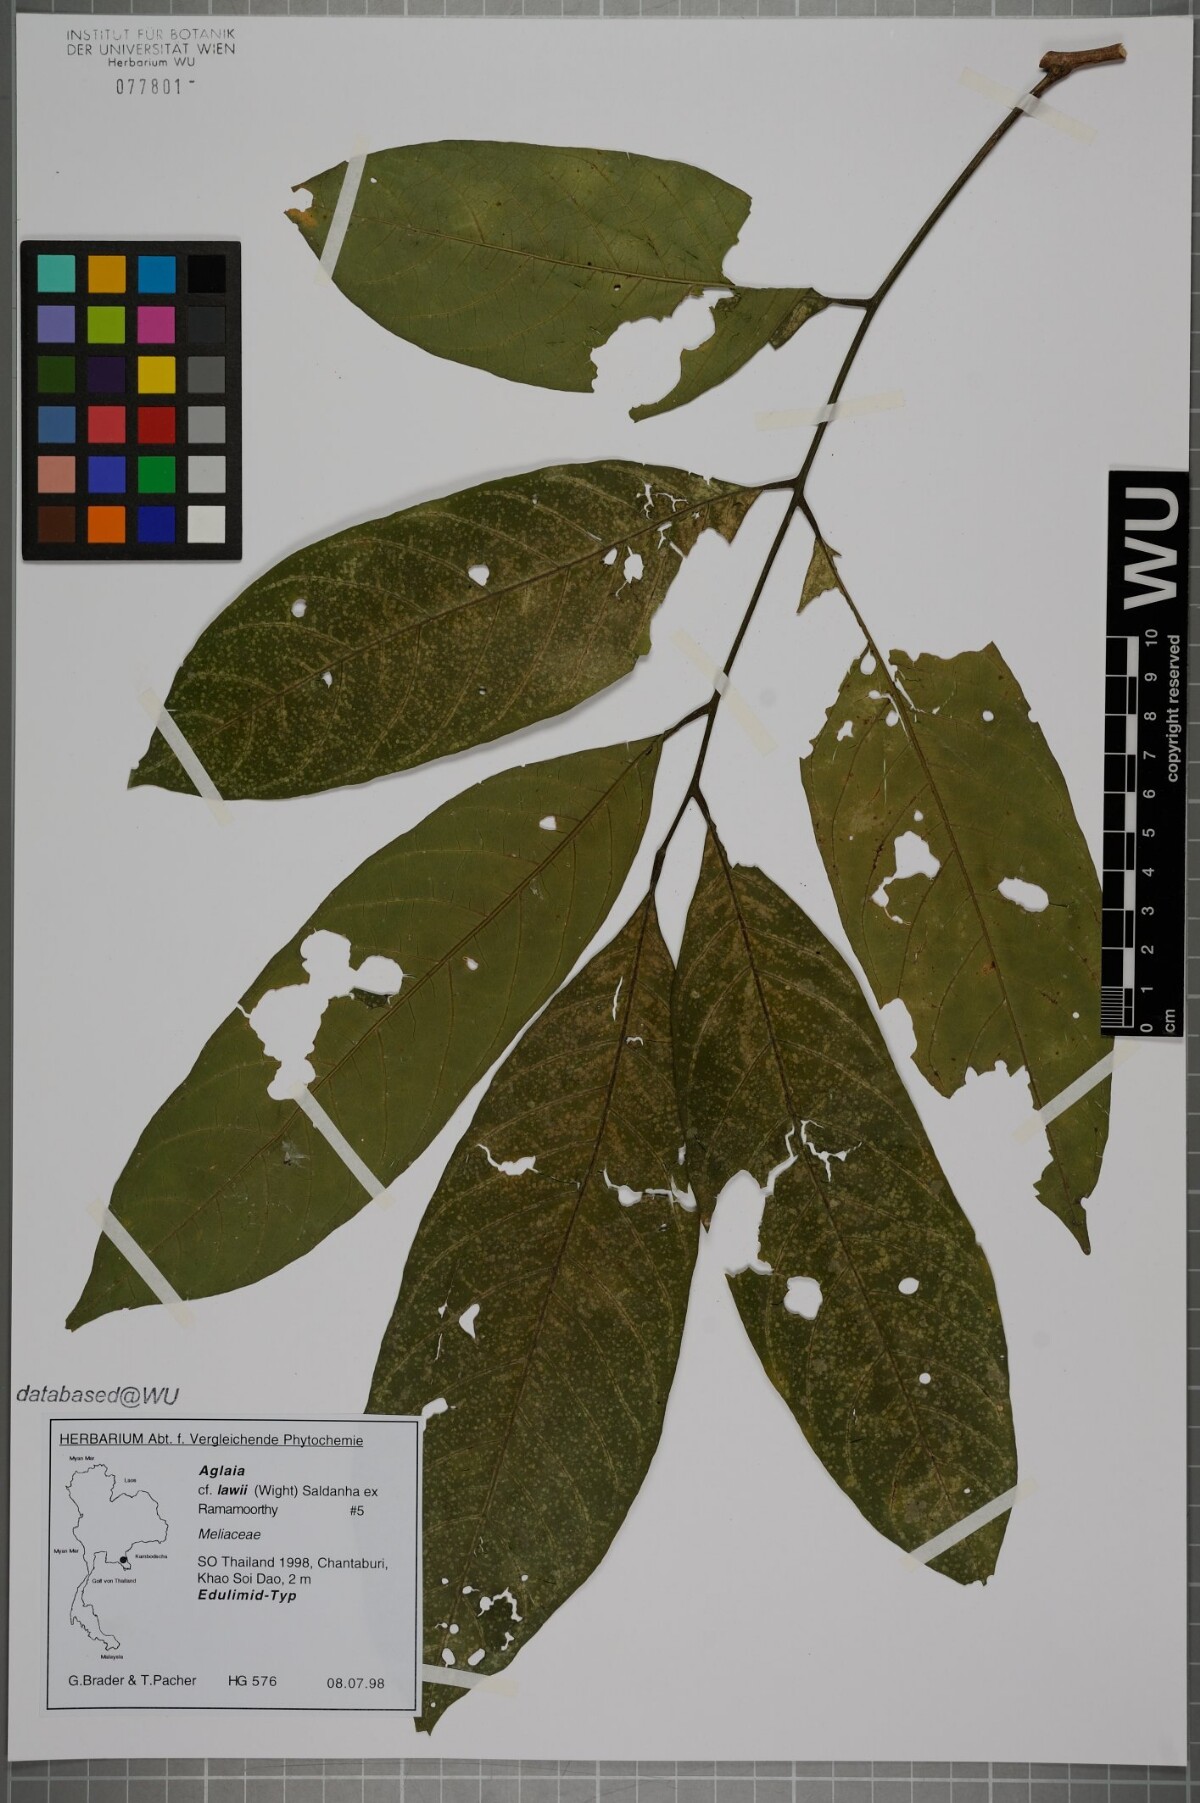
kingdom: Plantae
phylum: Tracheophyta
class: Magnoliopsida
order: Sapindales
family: Meliaceae
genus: Aglaia
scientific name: Aglaia lawii
